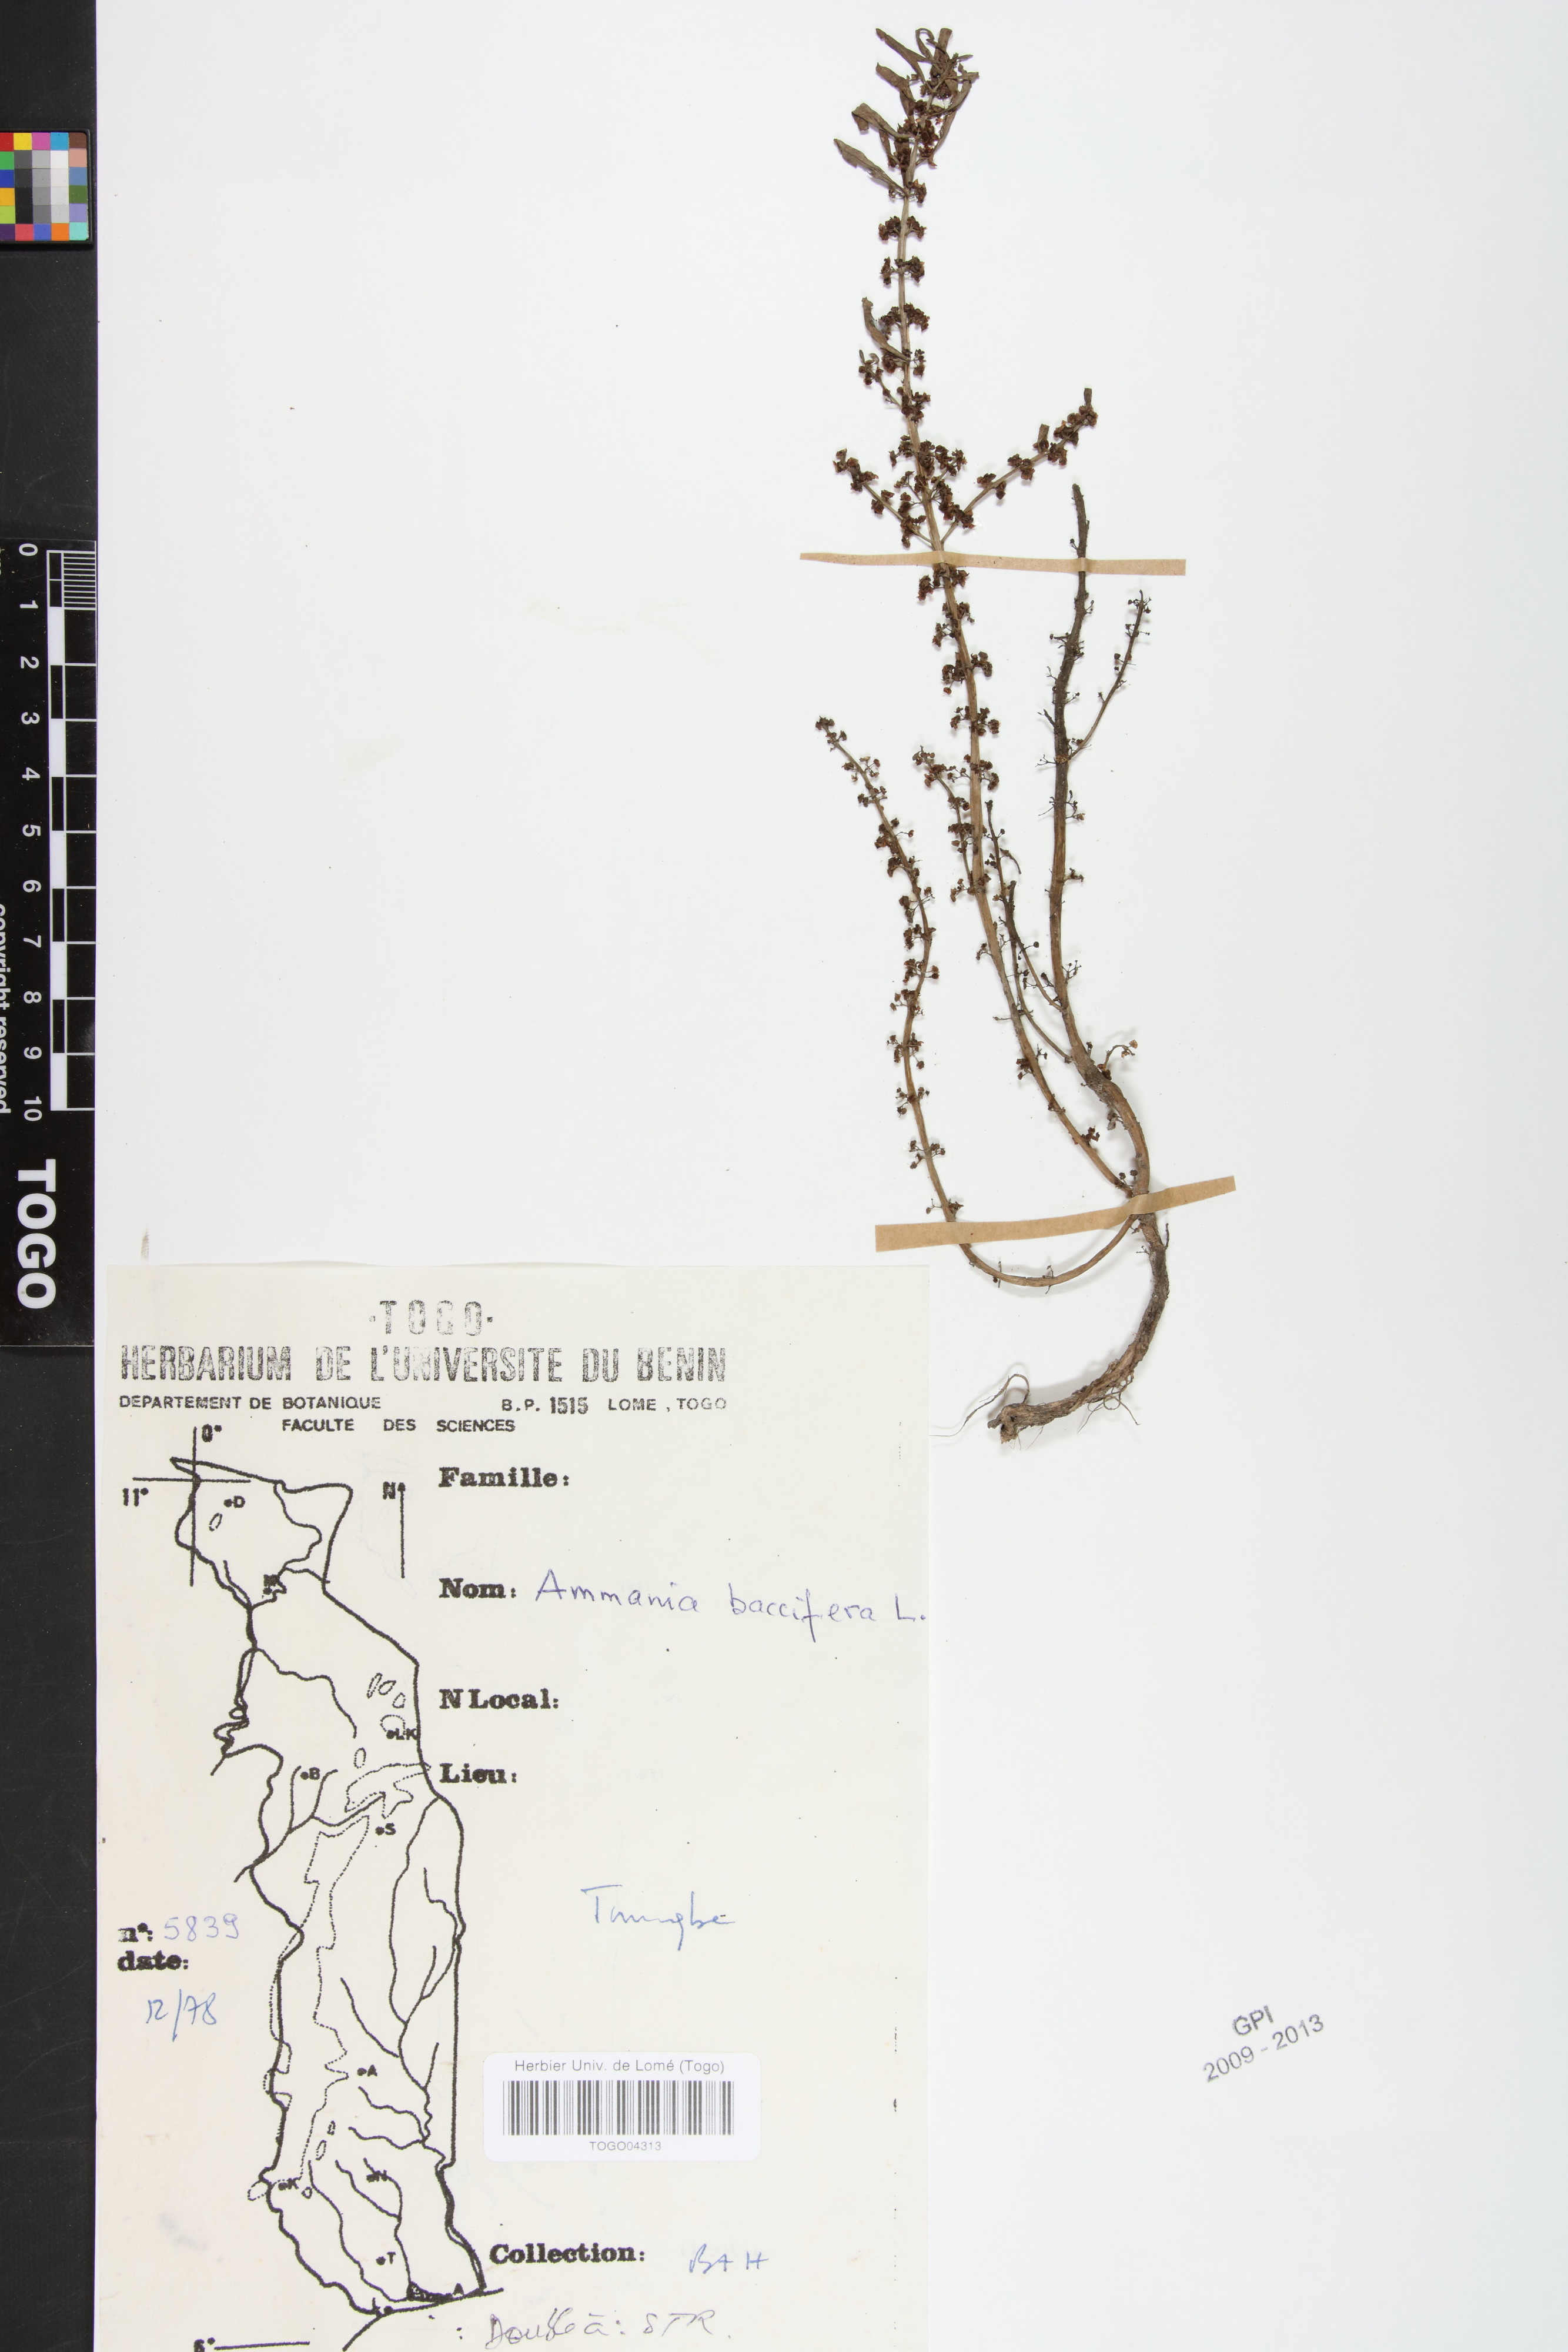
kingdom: Plantae
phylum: Tracheophyta
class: Magnoliopsida
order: Myrtales
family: Lythraceae
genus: Ammannia
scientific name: Ammannia baccifera
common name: Blistering ammania
